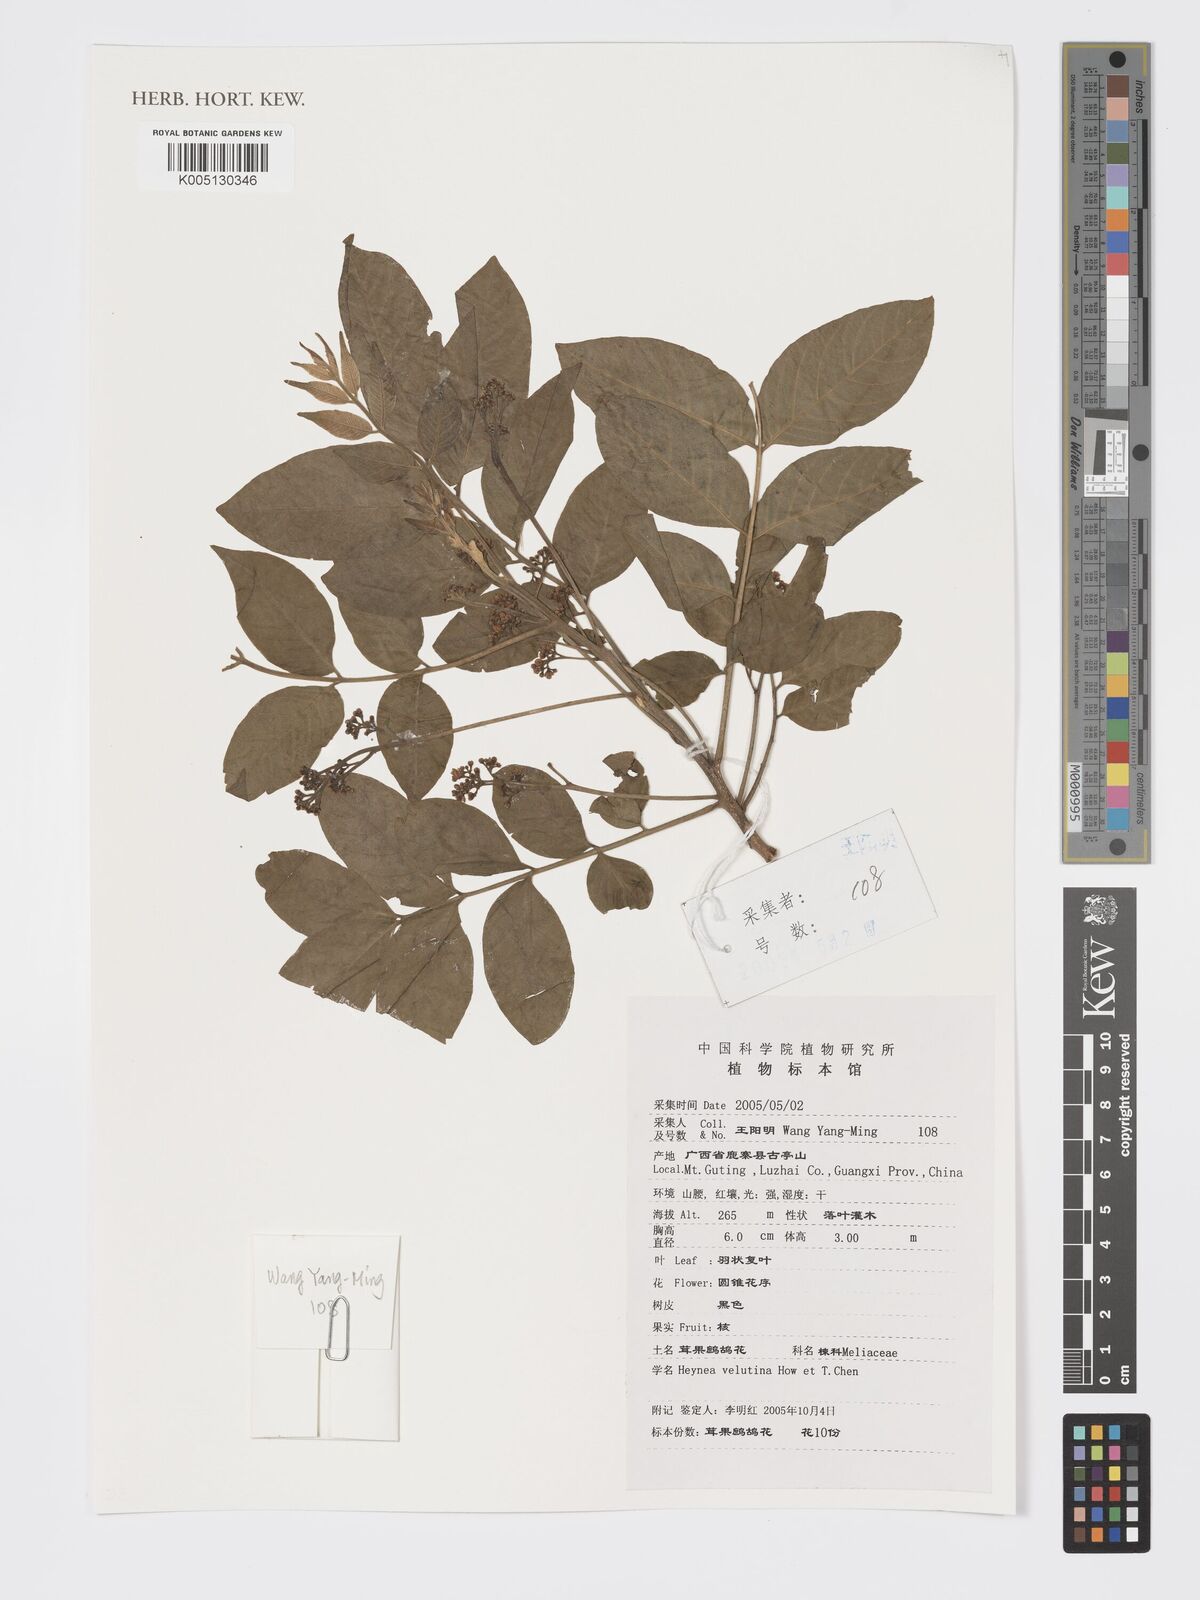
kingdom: Plantae
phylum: Tracheophyta
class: Magnoliopsida
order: Sapindales
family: Meliaceae
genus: Heynea
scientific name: Heynea velutina
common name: Chulantree
